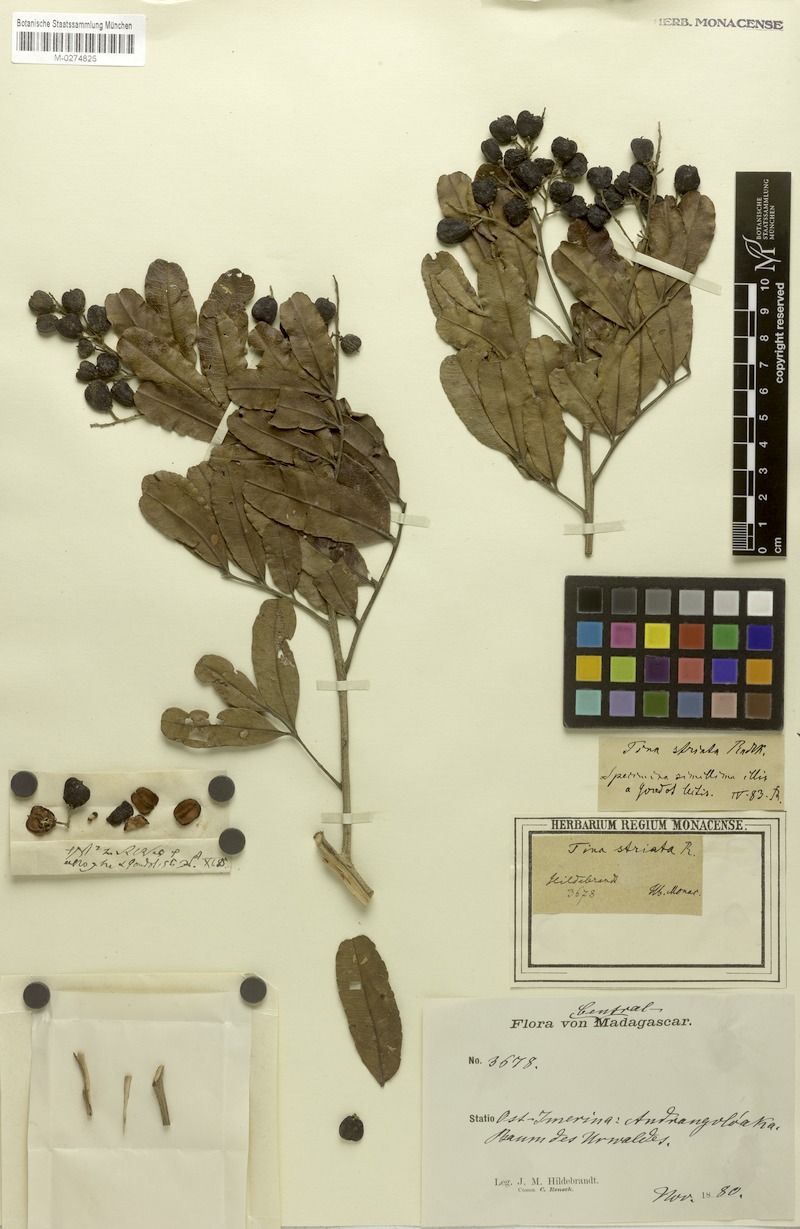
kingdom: Plantae
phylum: Tracheophyta
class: Magnoliopsida
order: Sapindales
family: Sapindaceae
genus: Tina
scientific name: Tina striata
